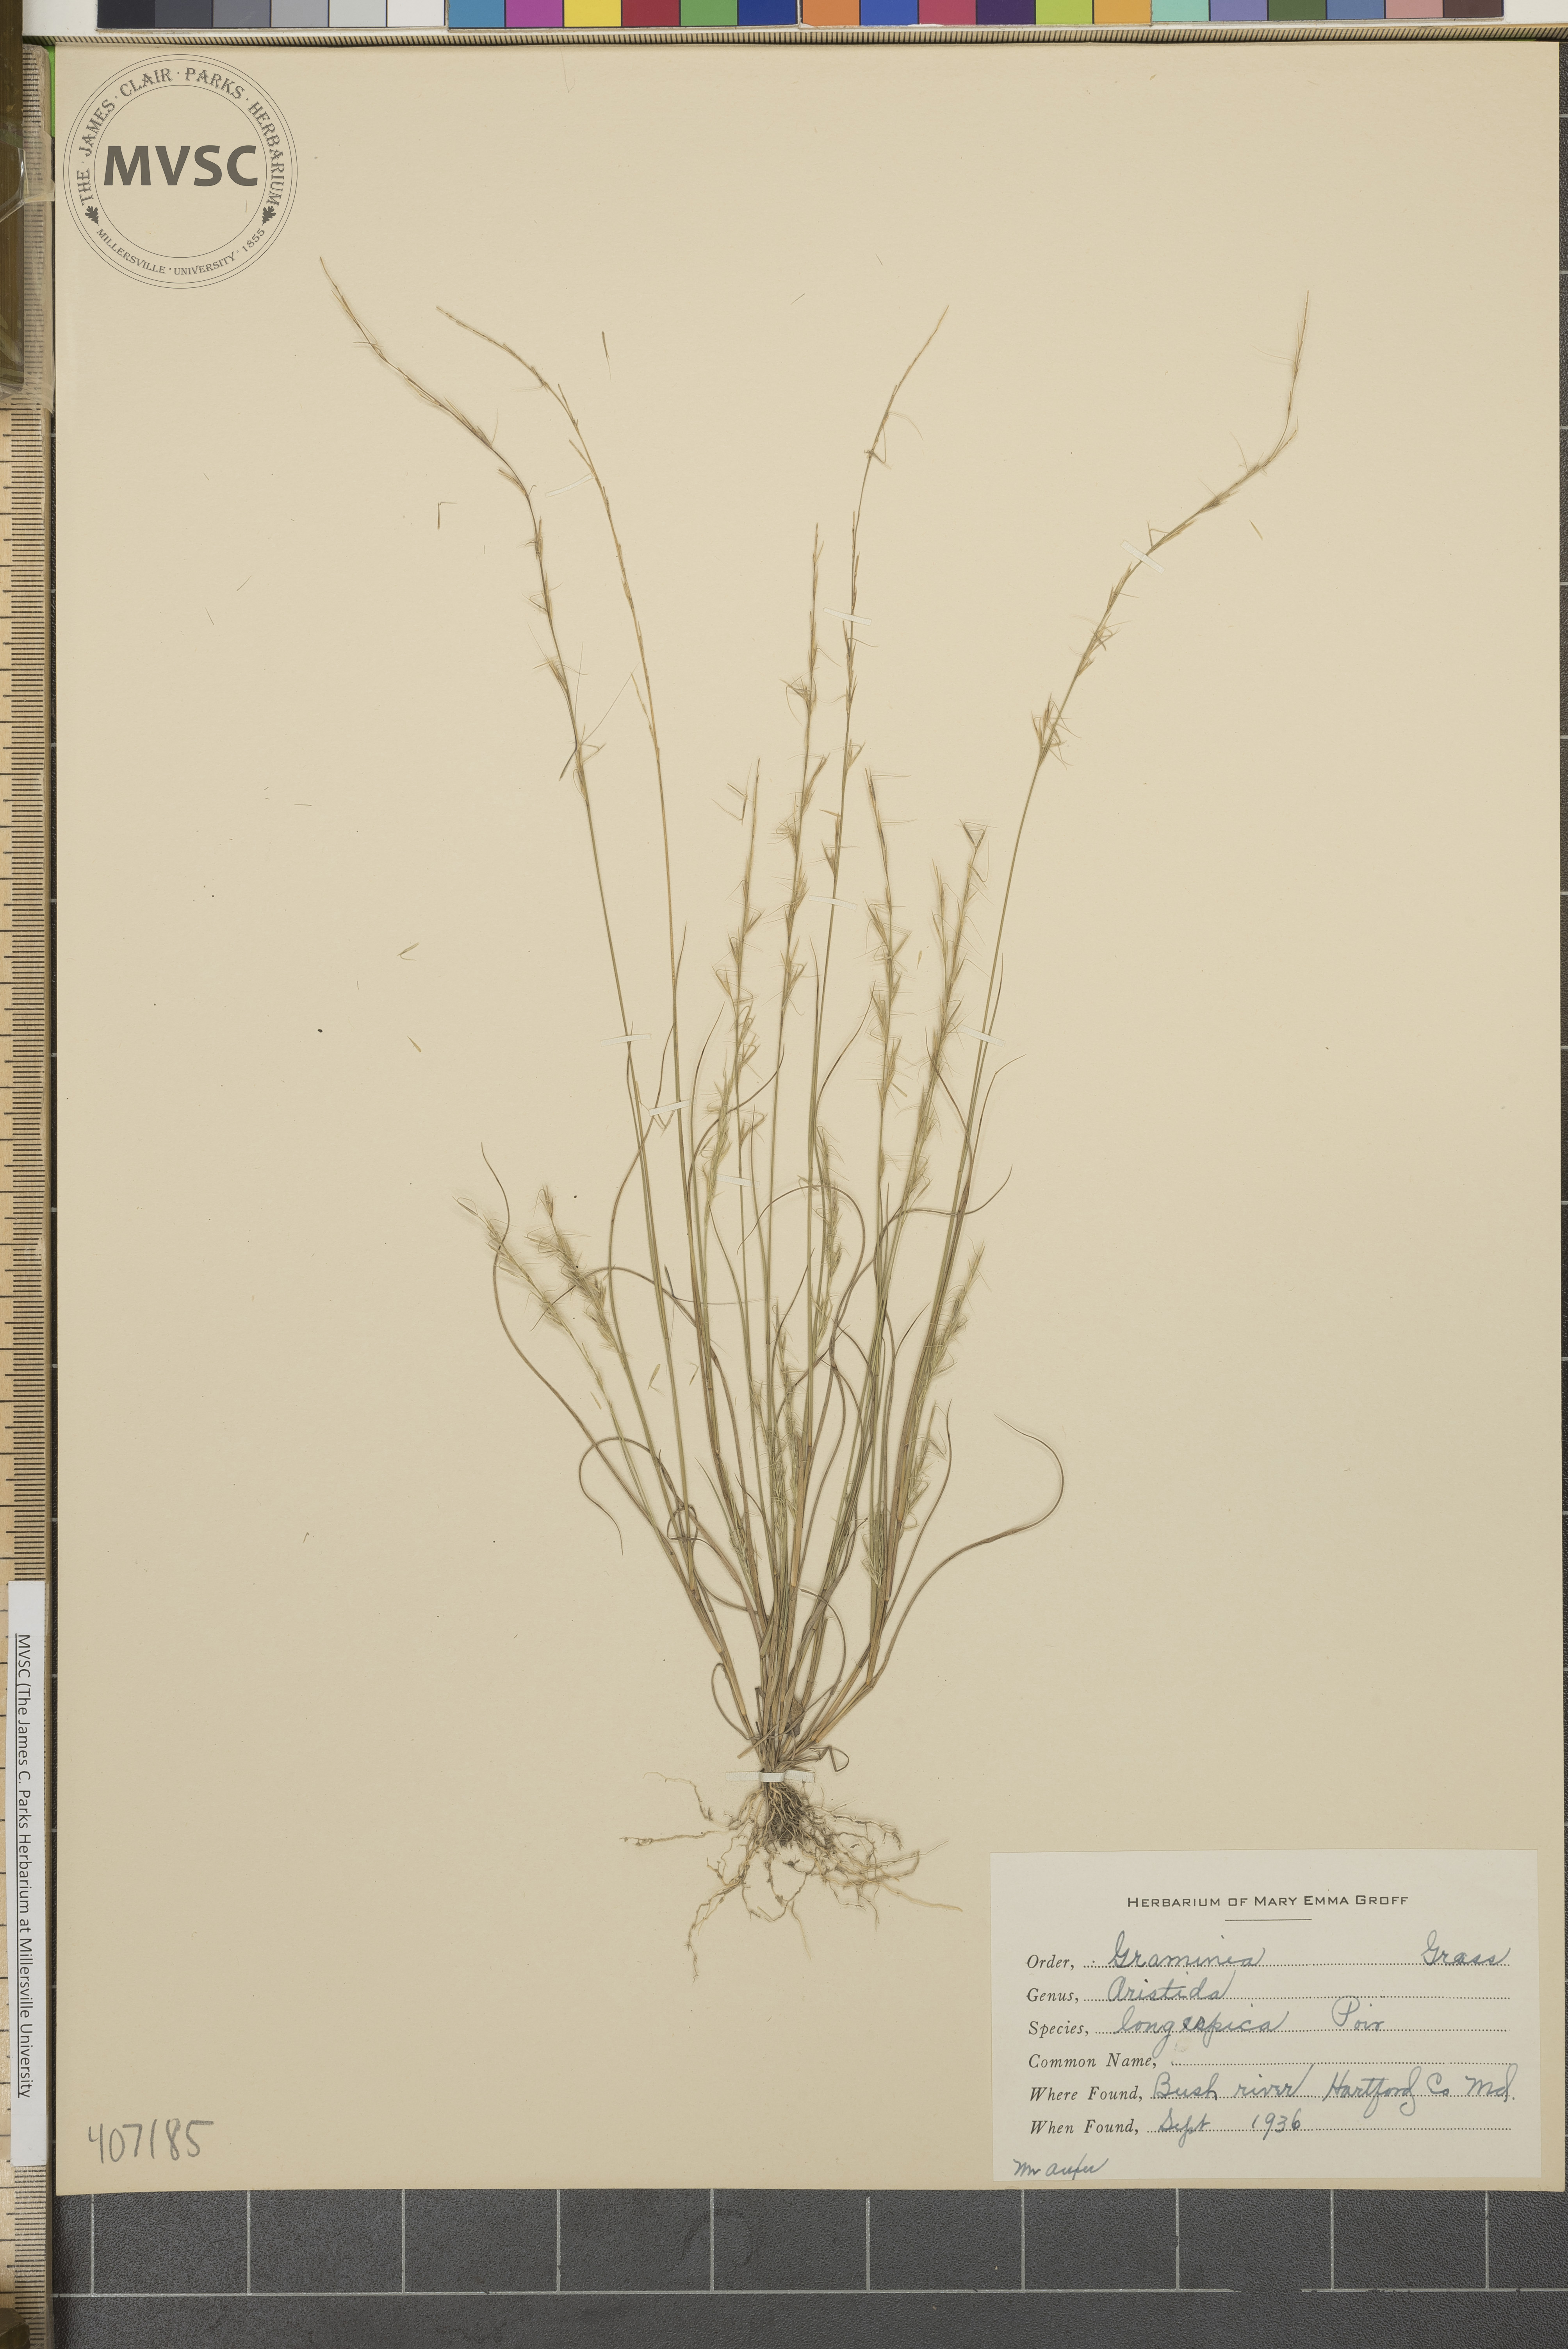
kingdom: Plantae
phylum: Tracheophyta
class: Liliopsida
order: Poales
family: Poaceae
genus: Aristida
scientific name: Aristida longespica
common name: Long-spiked triple-awned grass
